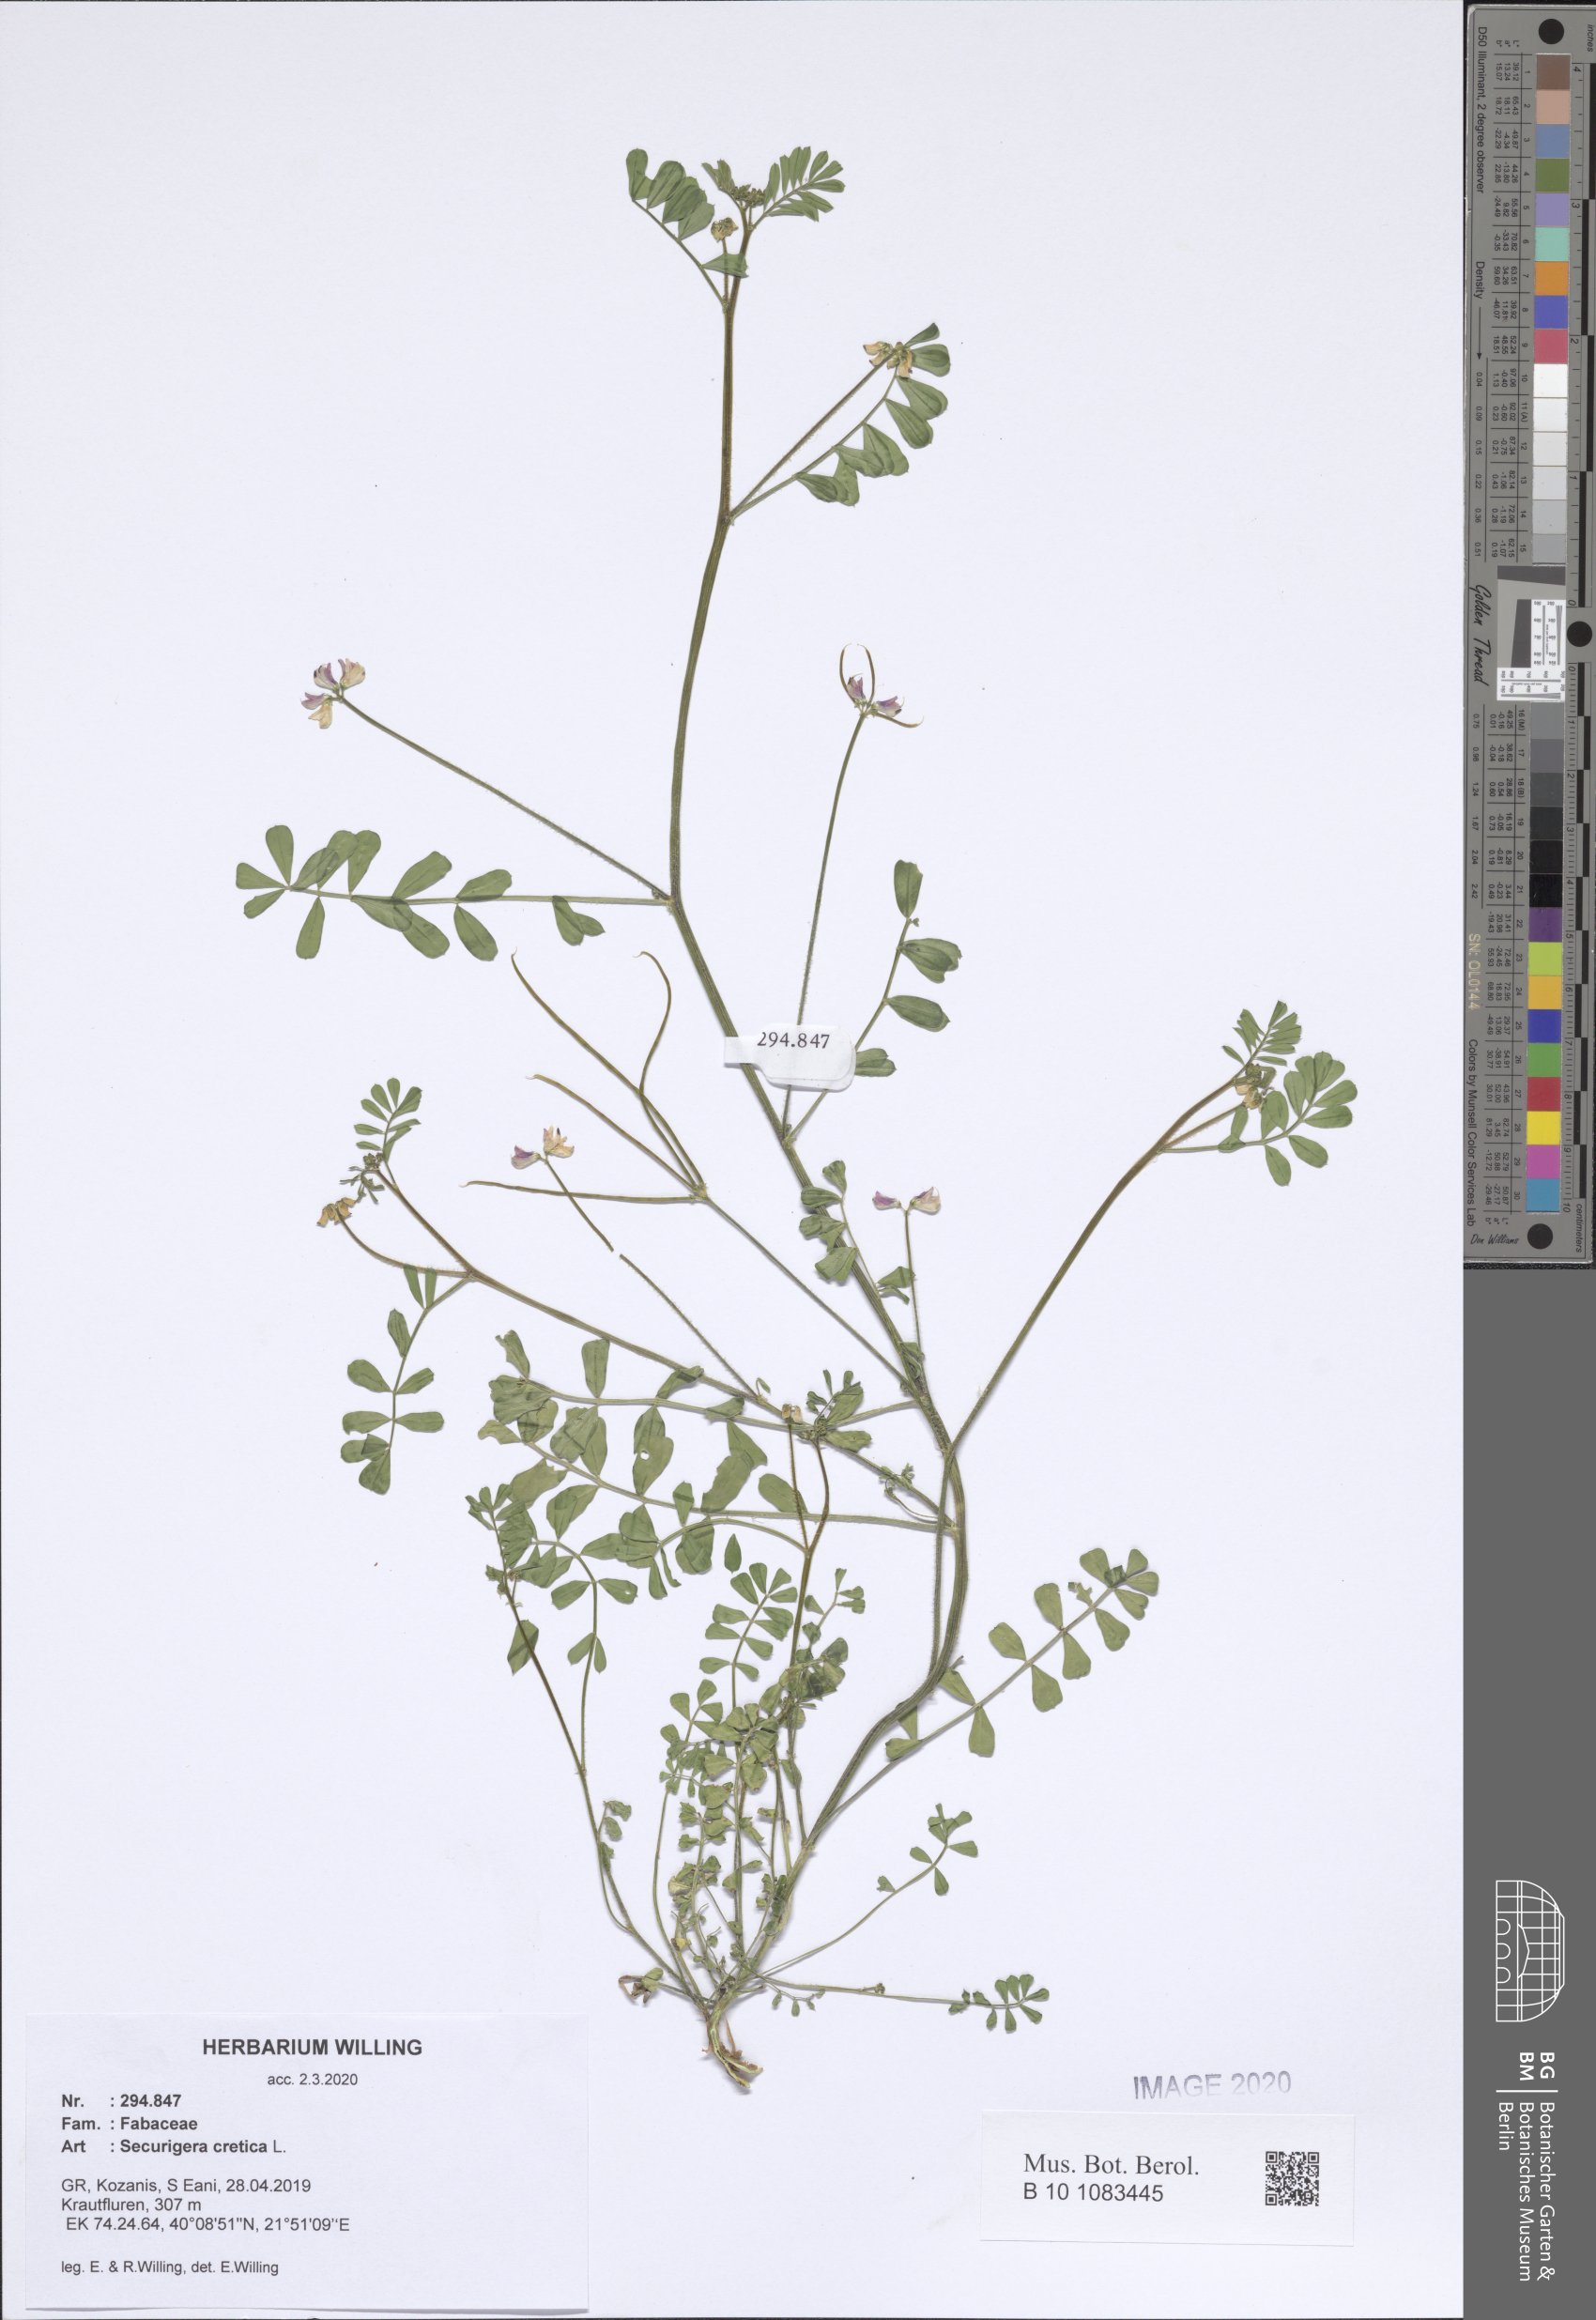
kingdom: Plantae
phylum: Tracheophyta
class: Magnoliopsida
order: Fabales
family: Fabaceae
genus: Coronilla
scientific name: Coronilla cretica
